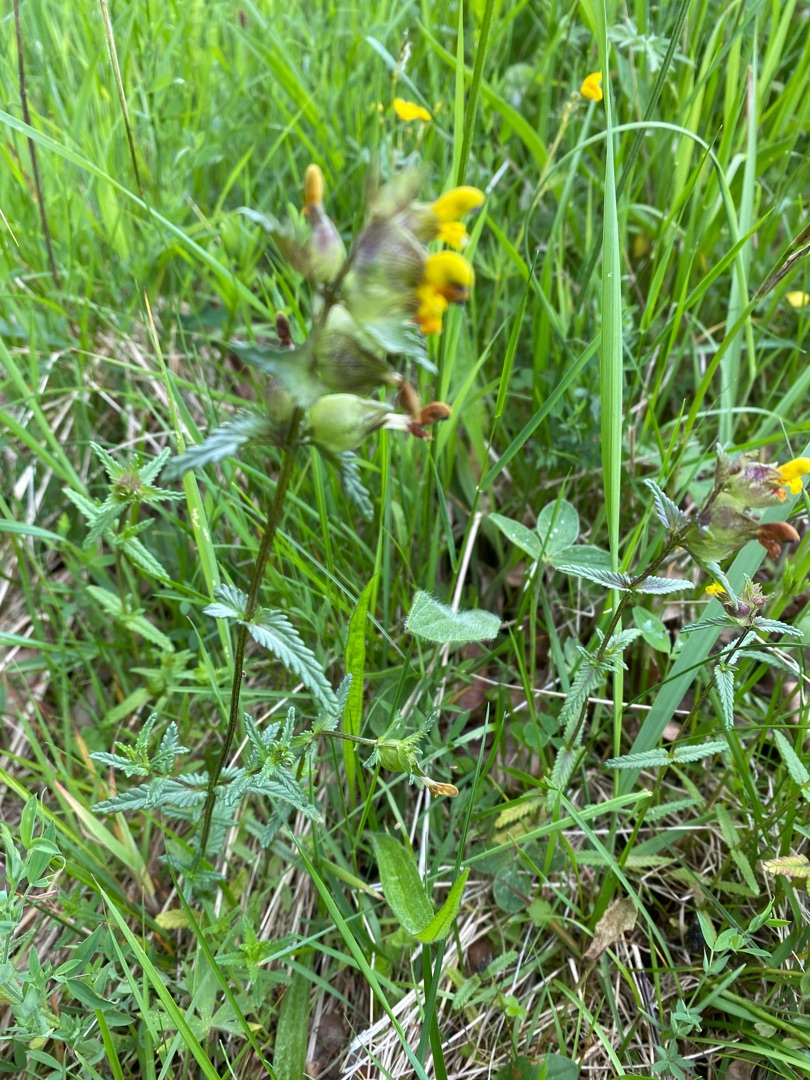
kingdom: Plantae
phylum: Tracheophyta
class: Magnoliopsida
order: Lamiales
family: Orobanchaceae
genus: Rhinanthus
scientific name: Rhinanthus minor
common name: Liden skjaller
